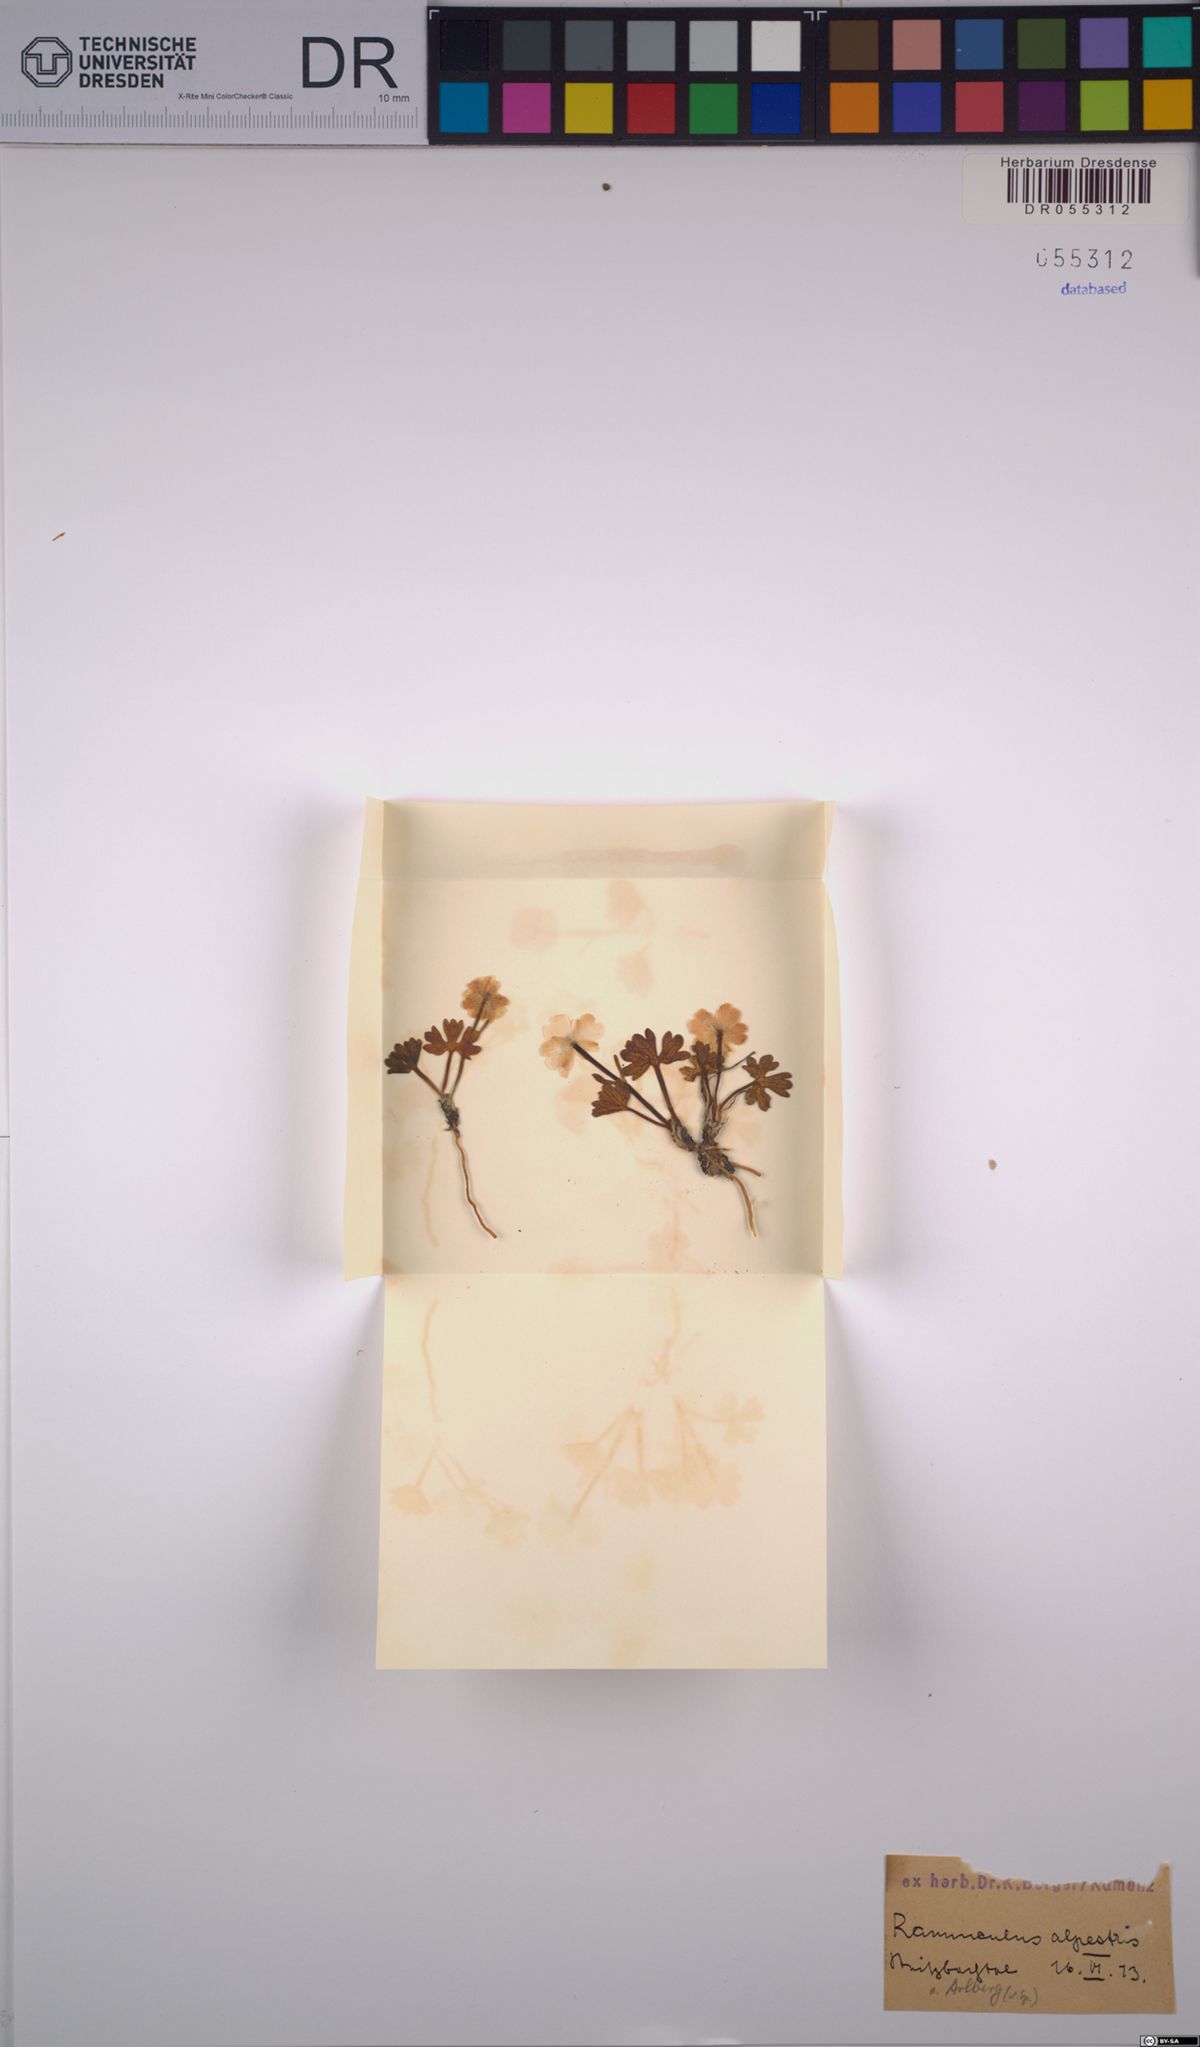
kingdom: Plantae
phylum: Tracheophyta
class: Magnoliopsida
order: Ranunculales
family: Ranunculaceae
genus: Ranunculus
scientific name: Ranunculus alpestris
